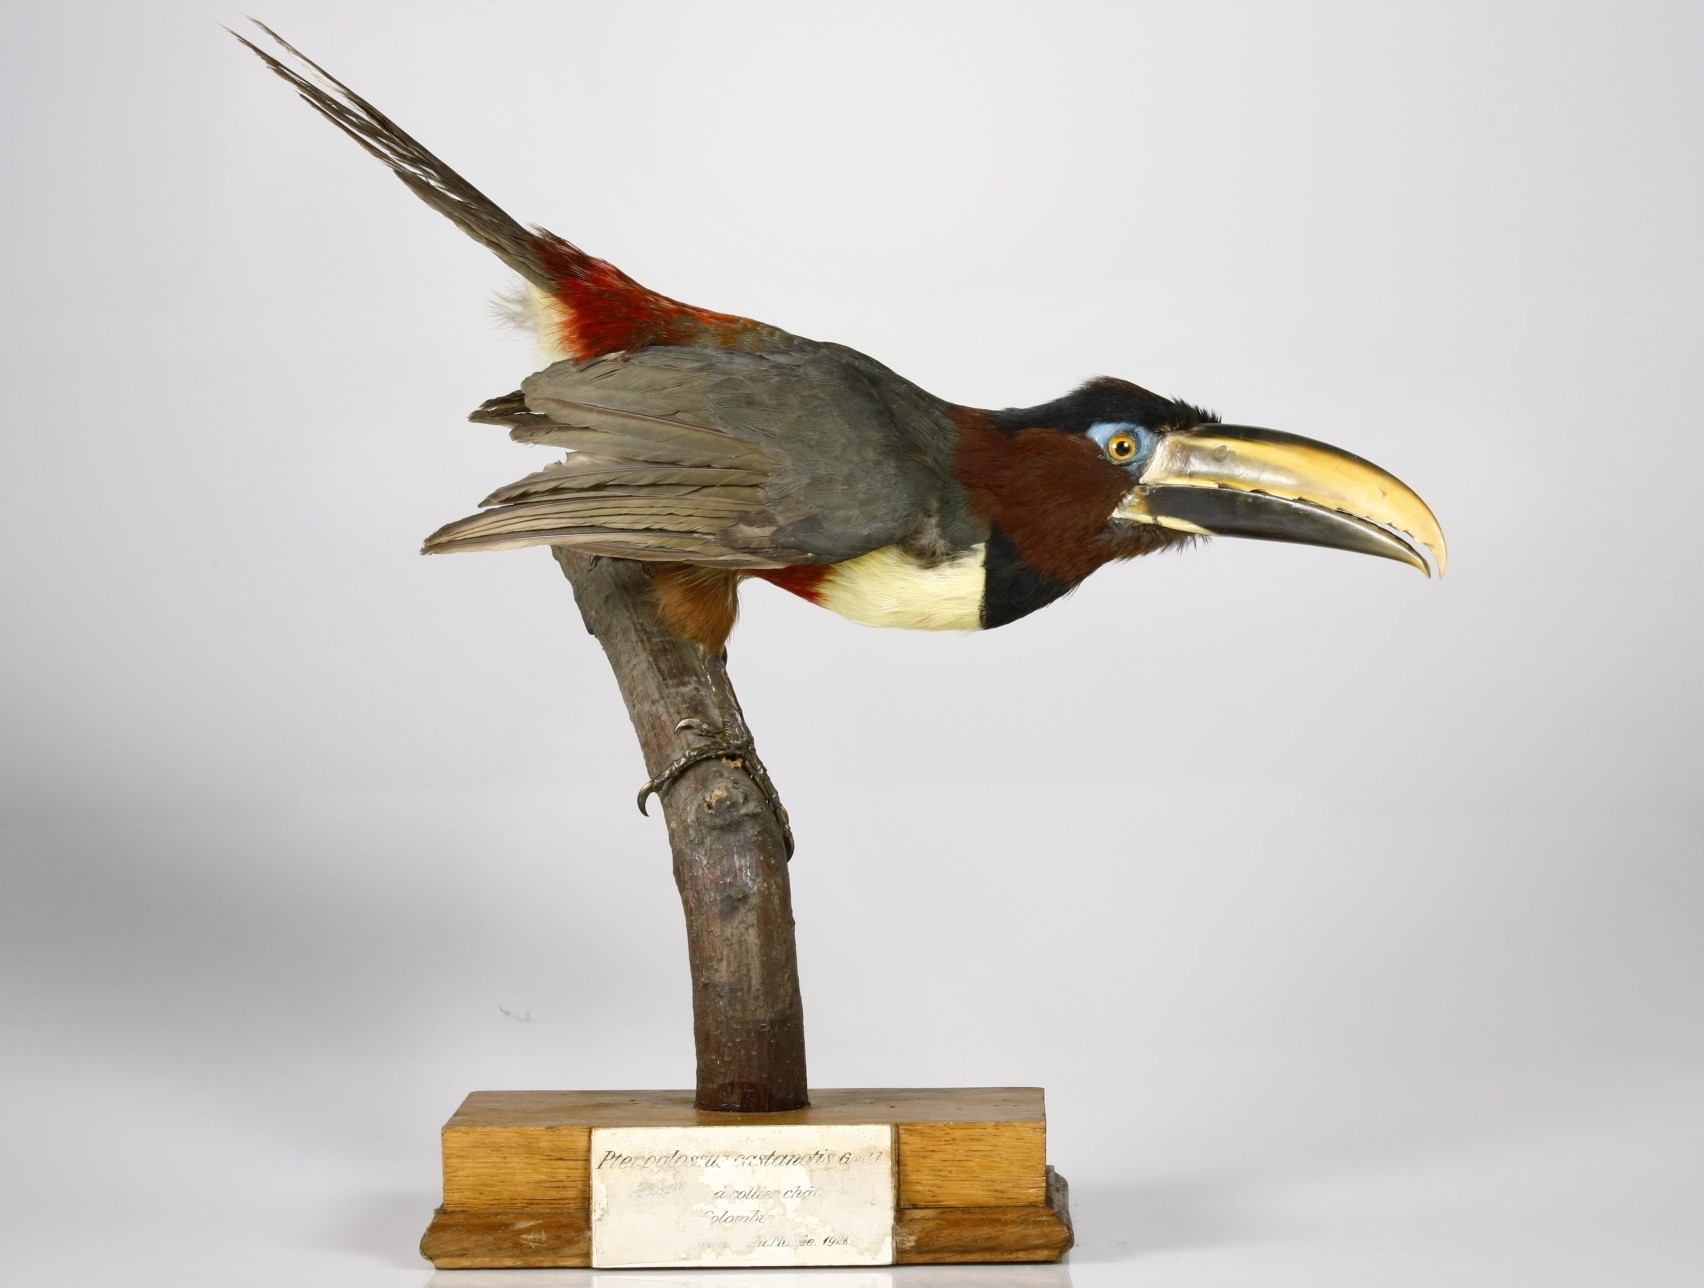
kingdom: Animalia
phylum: Chordata
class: Aves
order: Piciformes
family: Ramphastidae
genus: Pteroglossus
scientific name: Pteroglossus castanotis
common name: Chestnut-eared aracari
